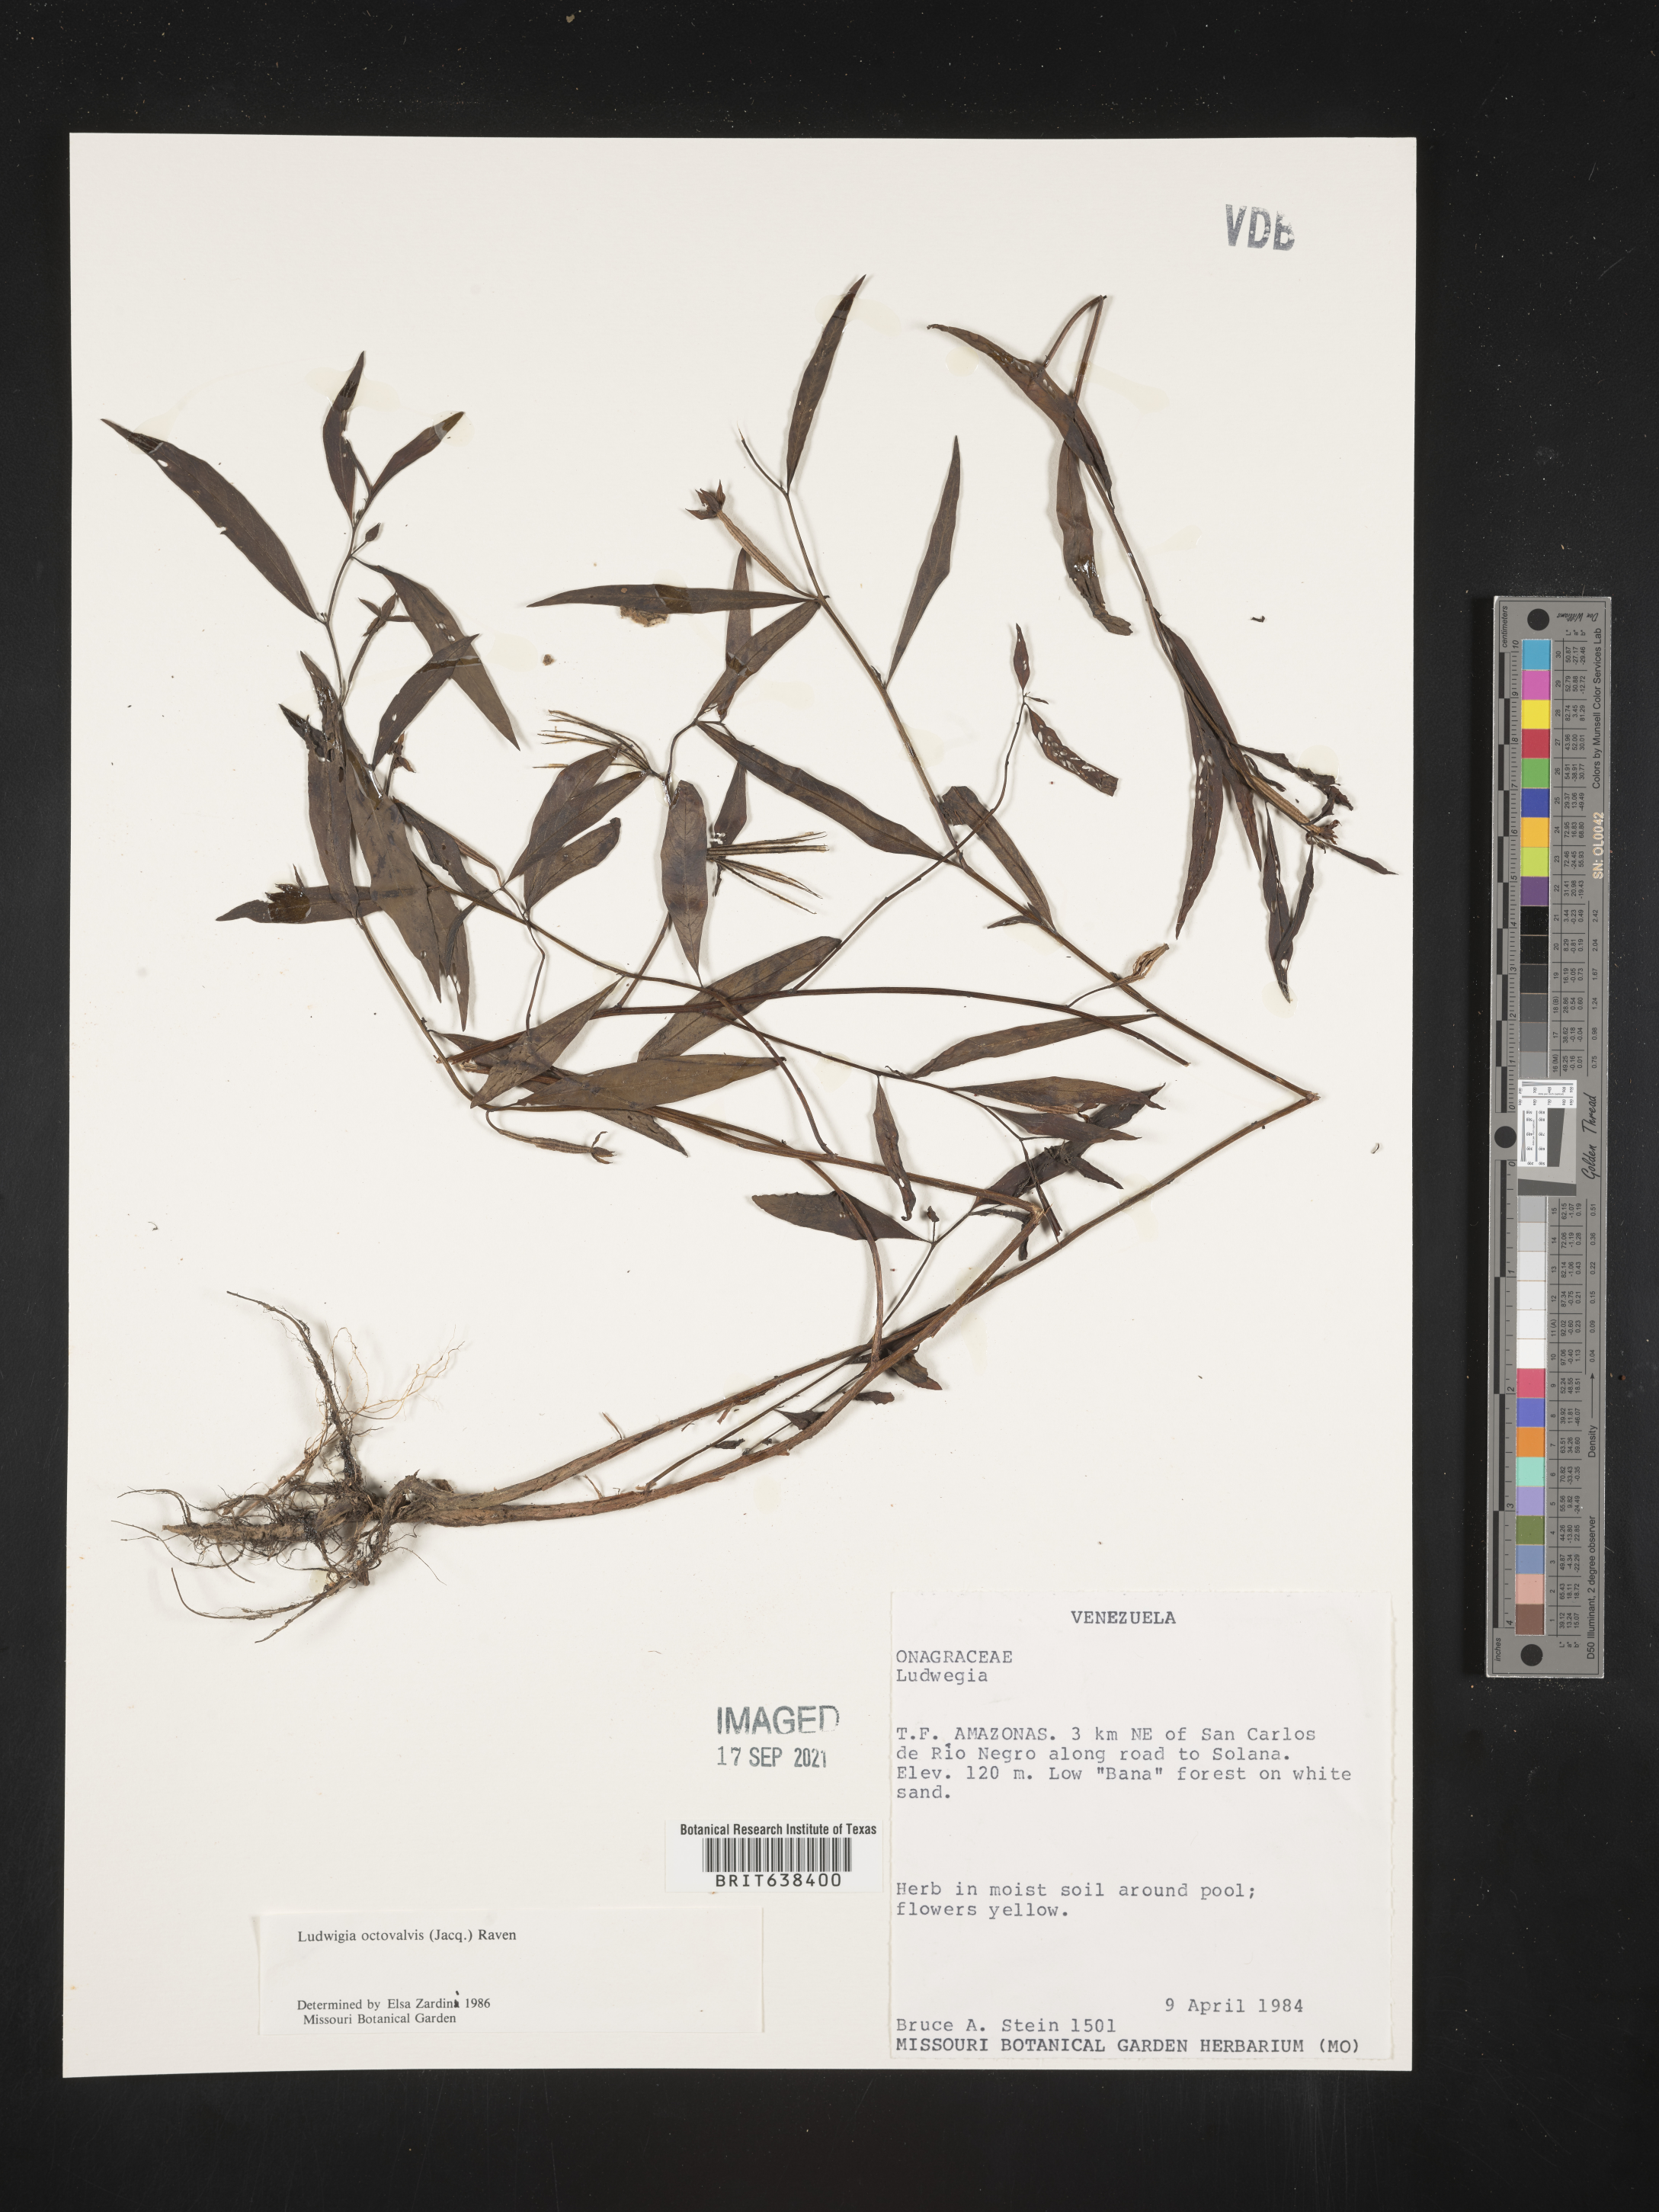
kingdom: Plantae
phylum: Tracheophyta
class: Magnoliopsida
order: Myrtales
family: Onagraceae
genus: Ludwigia
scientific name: Ludwigia
